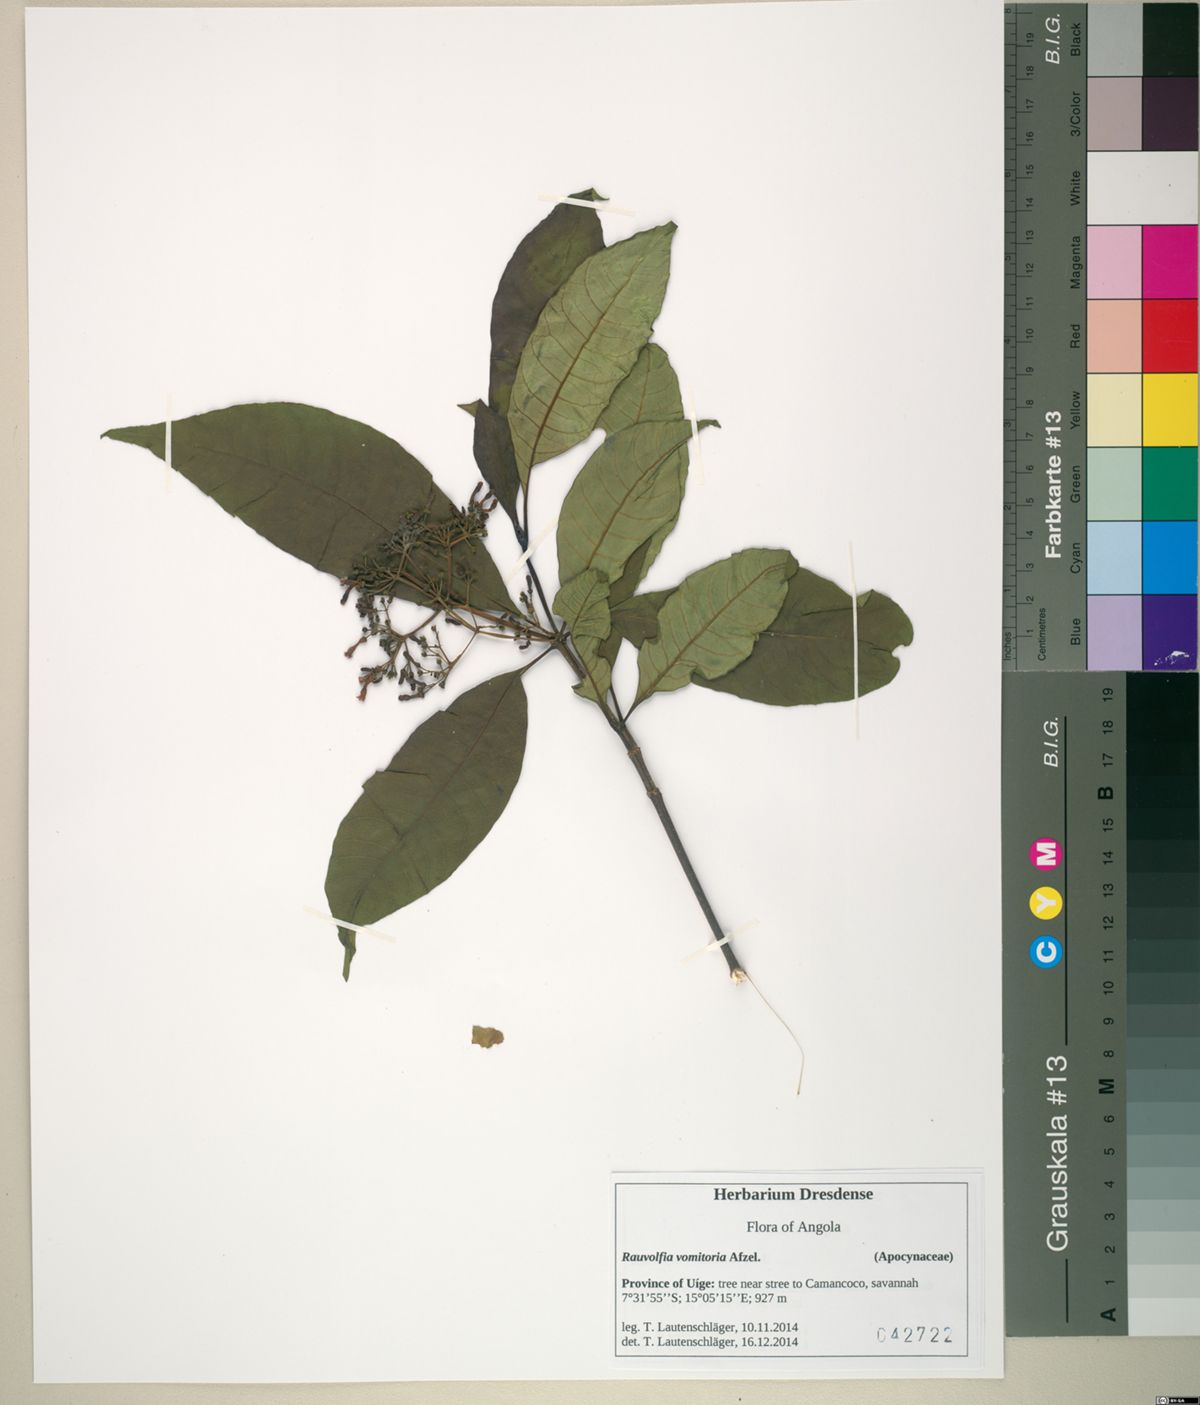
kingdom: Plantae
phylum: Tracheophyta
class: Magnoliopsida
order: Gentianales
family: Apocynaceae
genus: Rauvolfia
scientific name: Rauvolfia vomitoria
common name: Poison devil's-pepper
